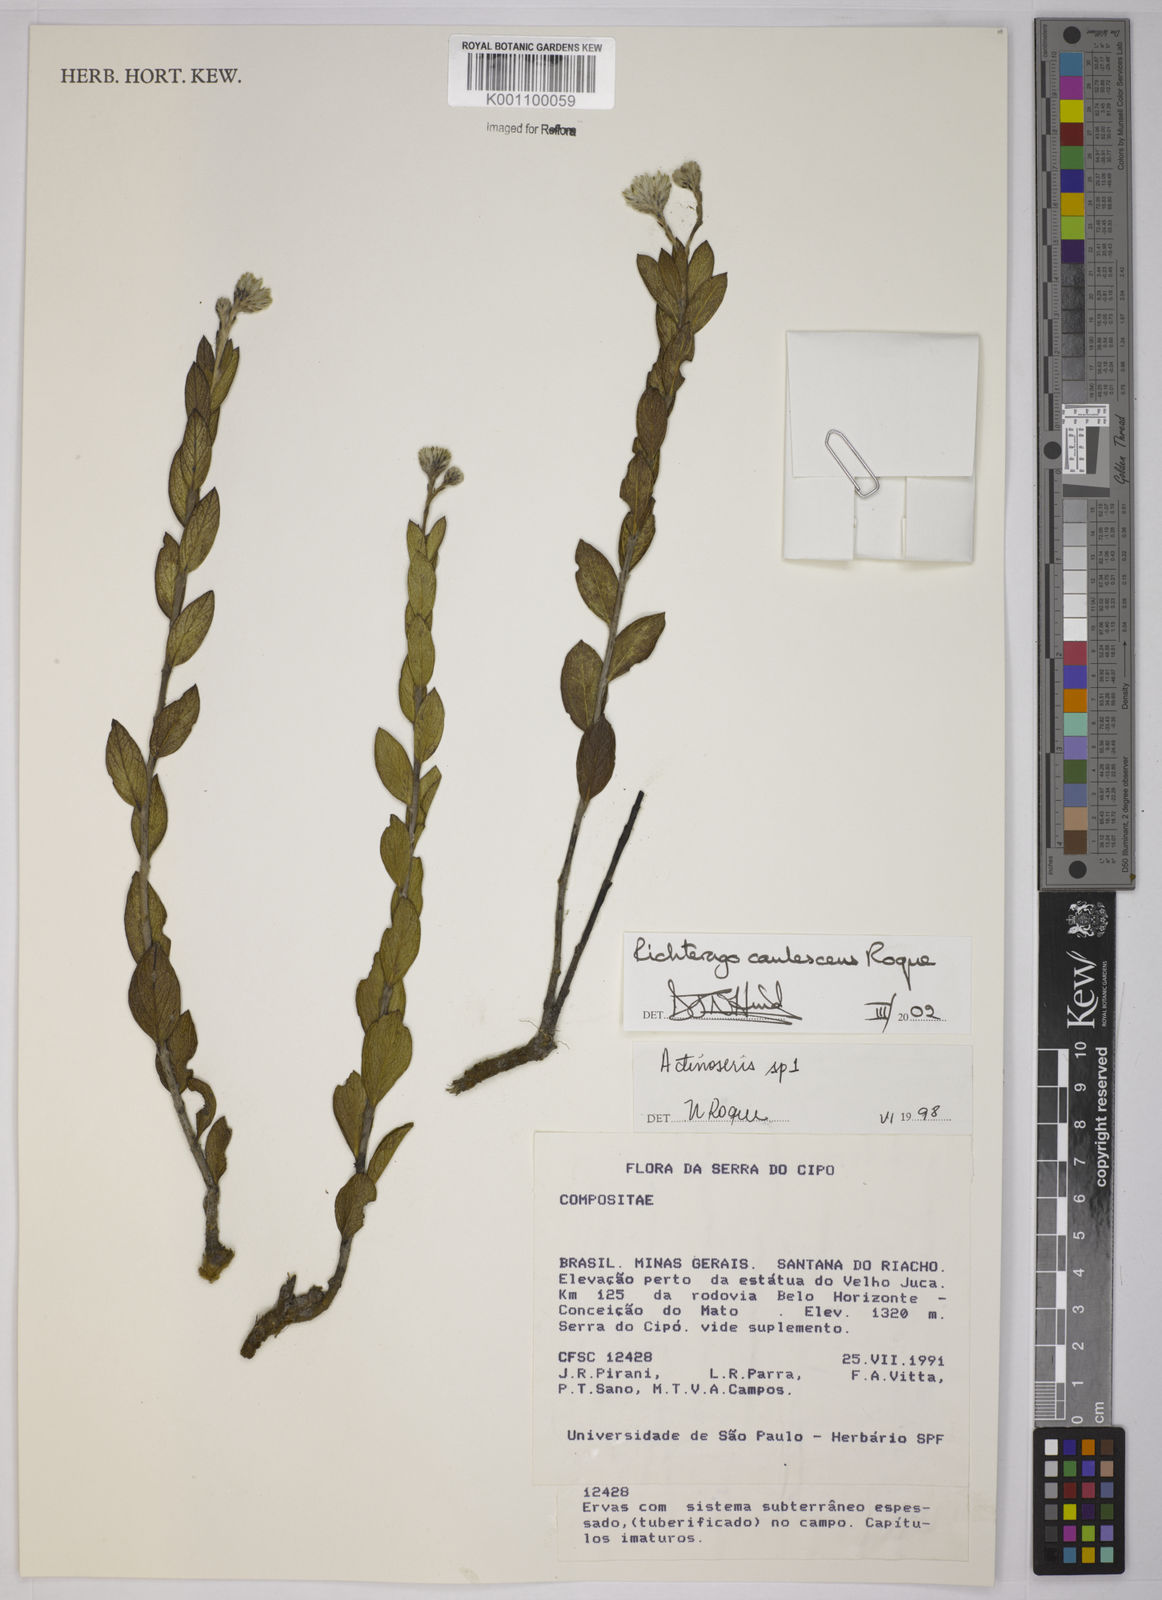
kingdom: Plantae
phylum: Tracheophyta
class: Magnoliopsida
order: Asterales
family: Asteraceae
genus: Richterago
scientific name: Richterago caulescens
